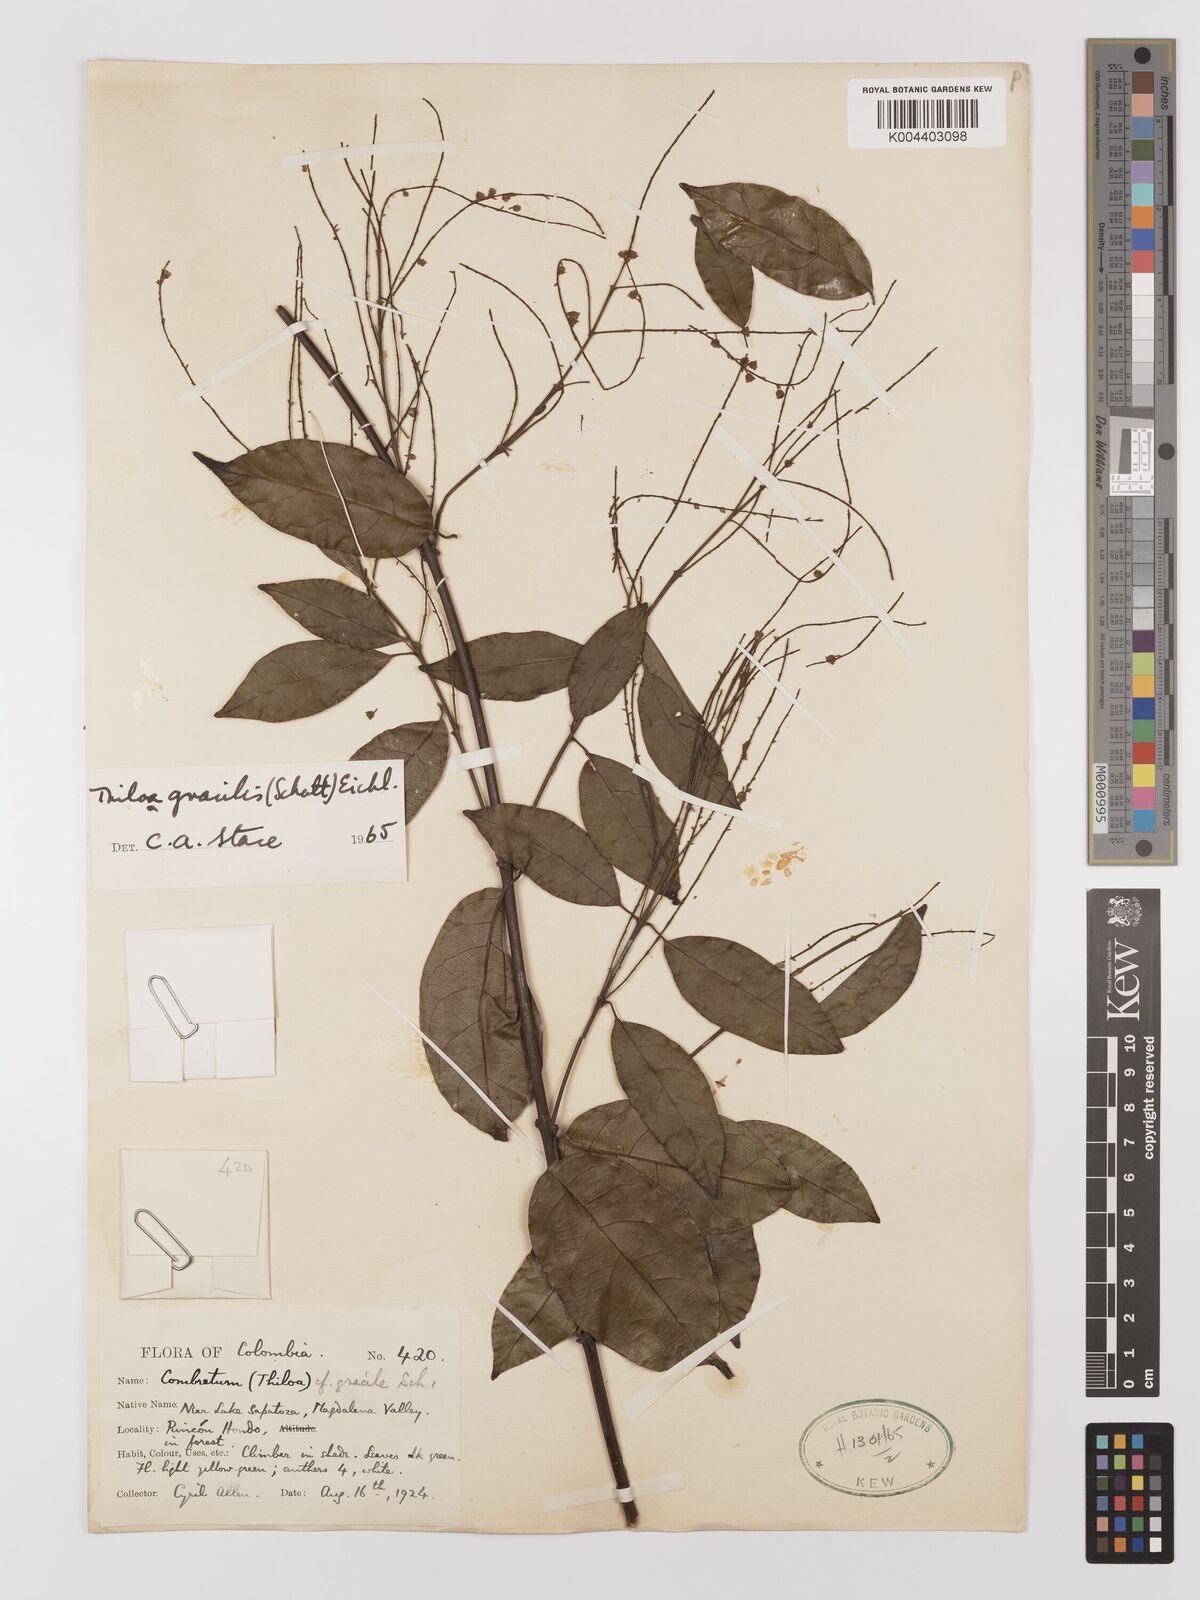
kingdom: Plantae
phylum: Tracheophyta
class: Magnoliopsida
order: Myrtales
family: Combretaceae
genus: Combretum
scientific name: Combretum gracile
